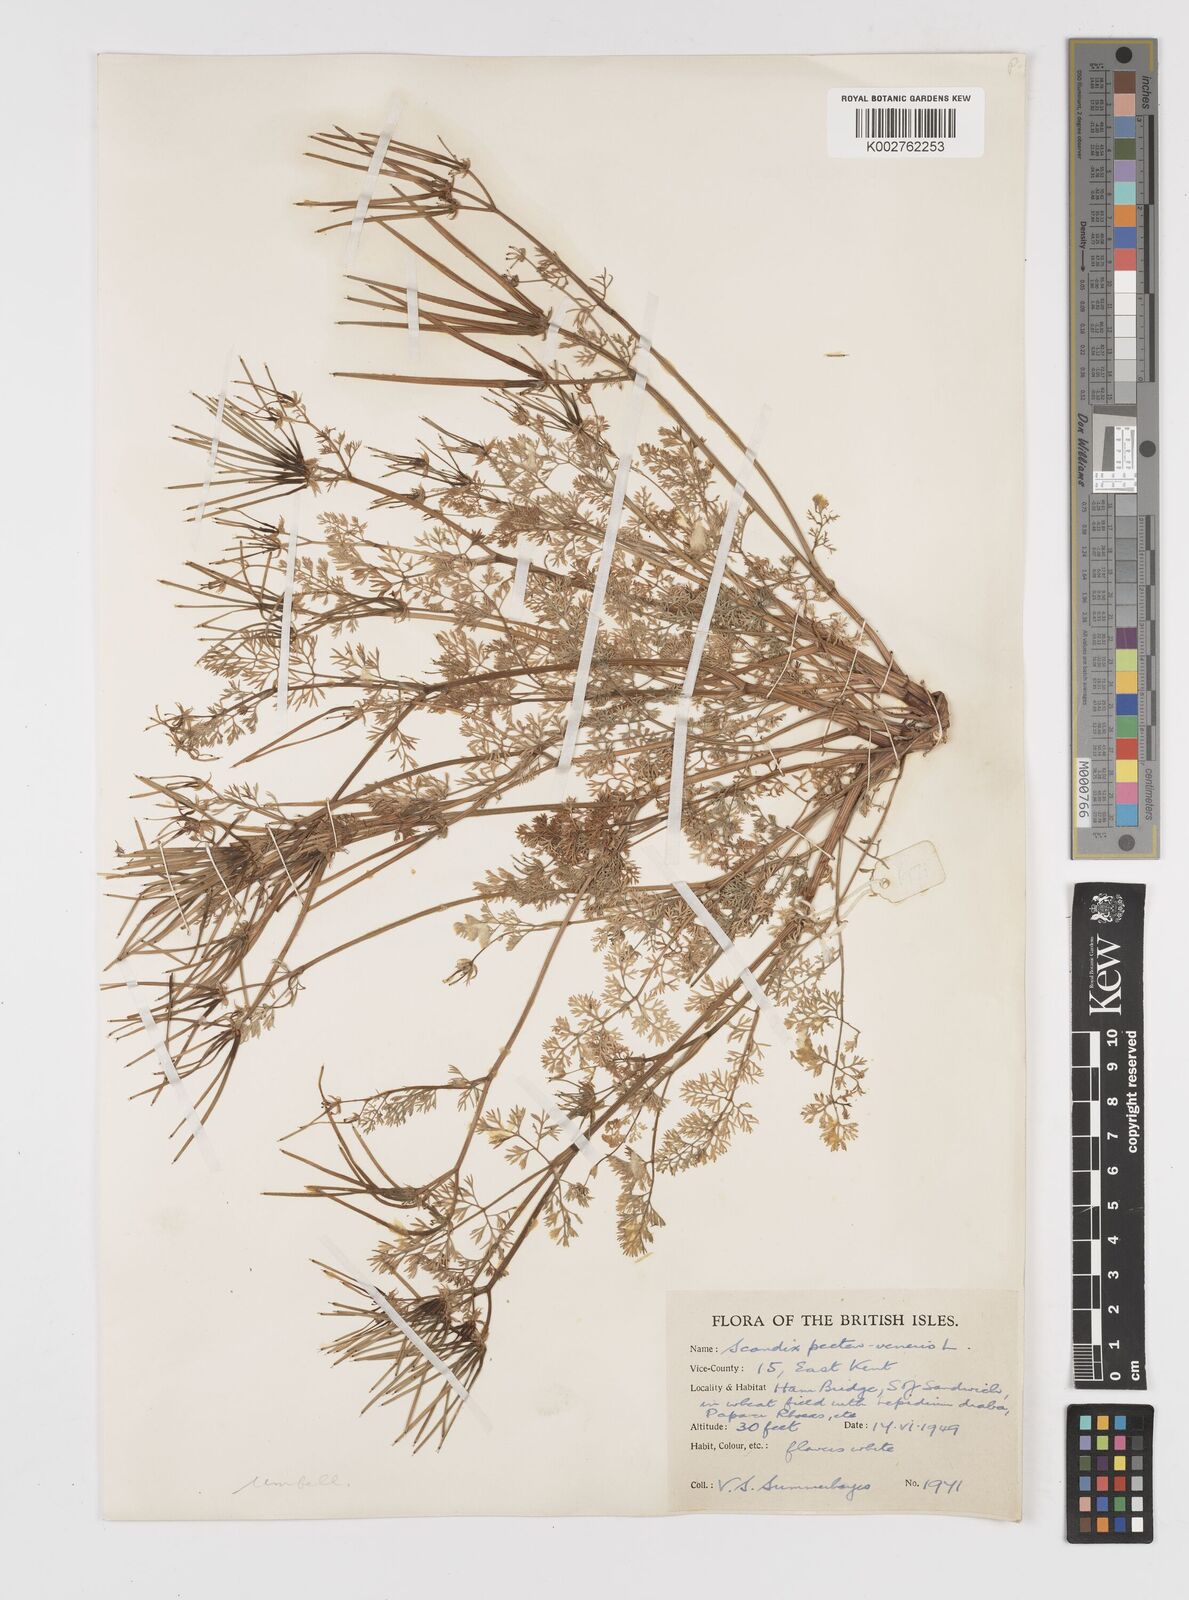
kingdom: Plantae
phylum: Tracheophyta
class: Magnoliopsida
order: Apiales
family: Apiaceae
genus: Scandix
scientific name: Scandix pecten-veneris
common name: Shepherd's-needle
